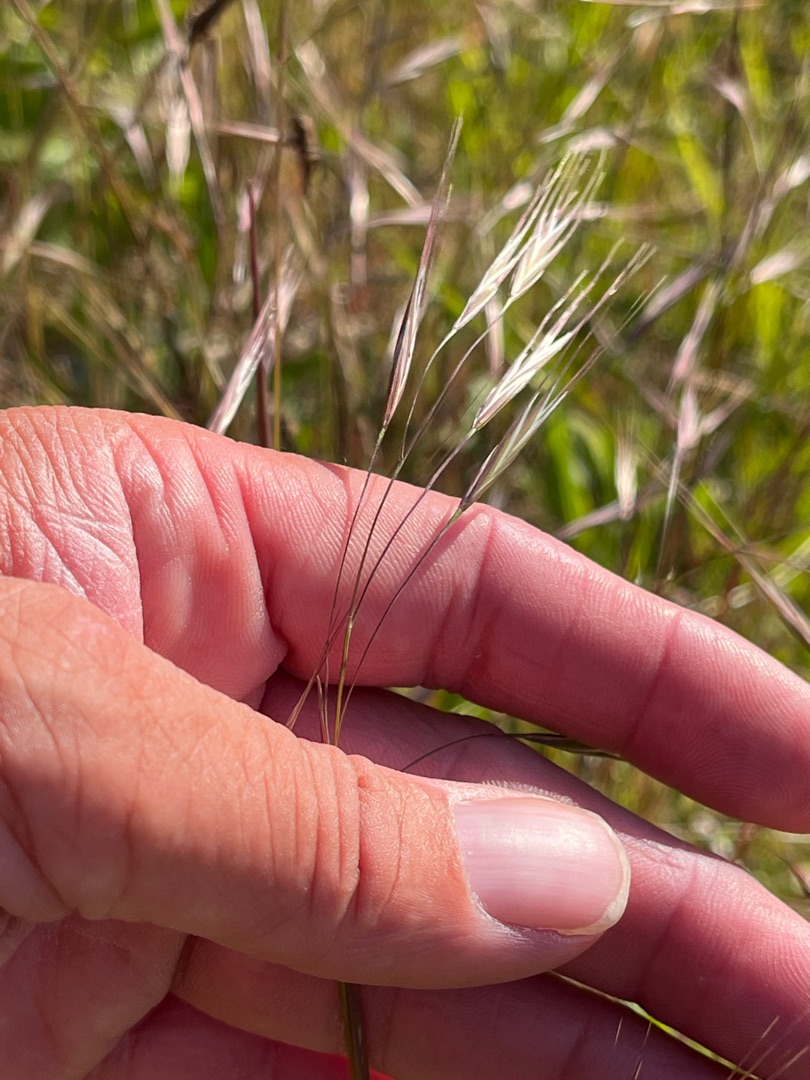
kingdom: Plantae
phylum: Tracheophyta
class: Liliopsida
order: Poales
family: Poaceae
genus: Bromus
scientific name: Bromus sterilis
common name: Gold hejre
